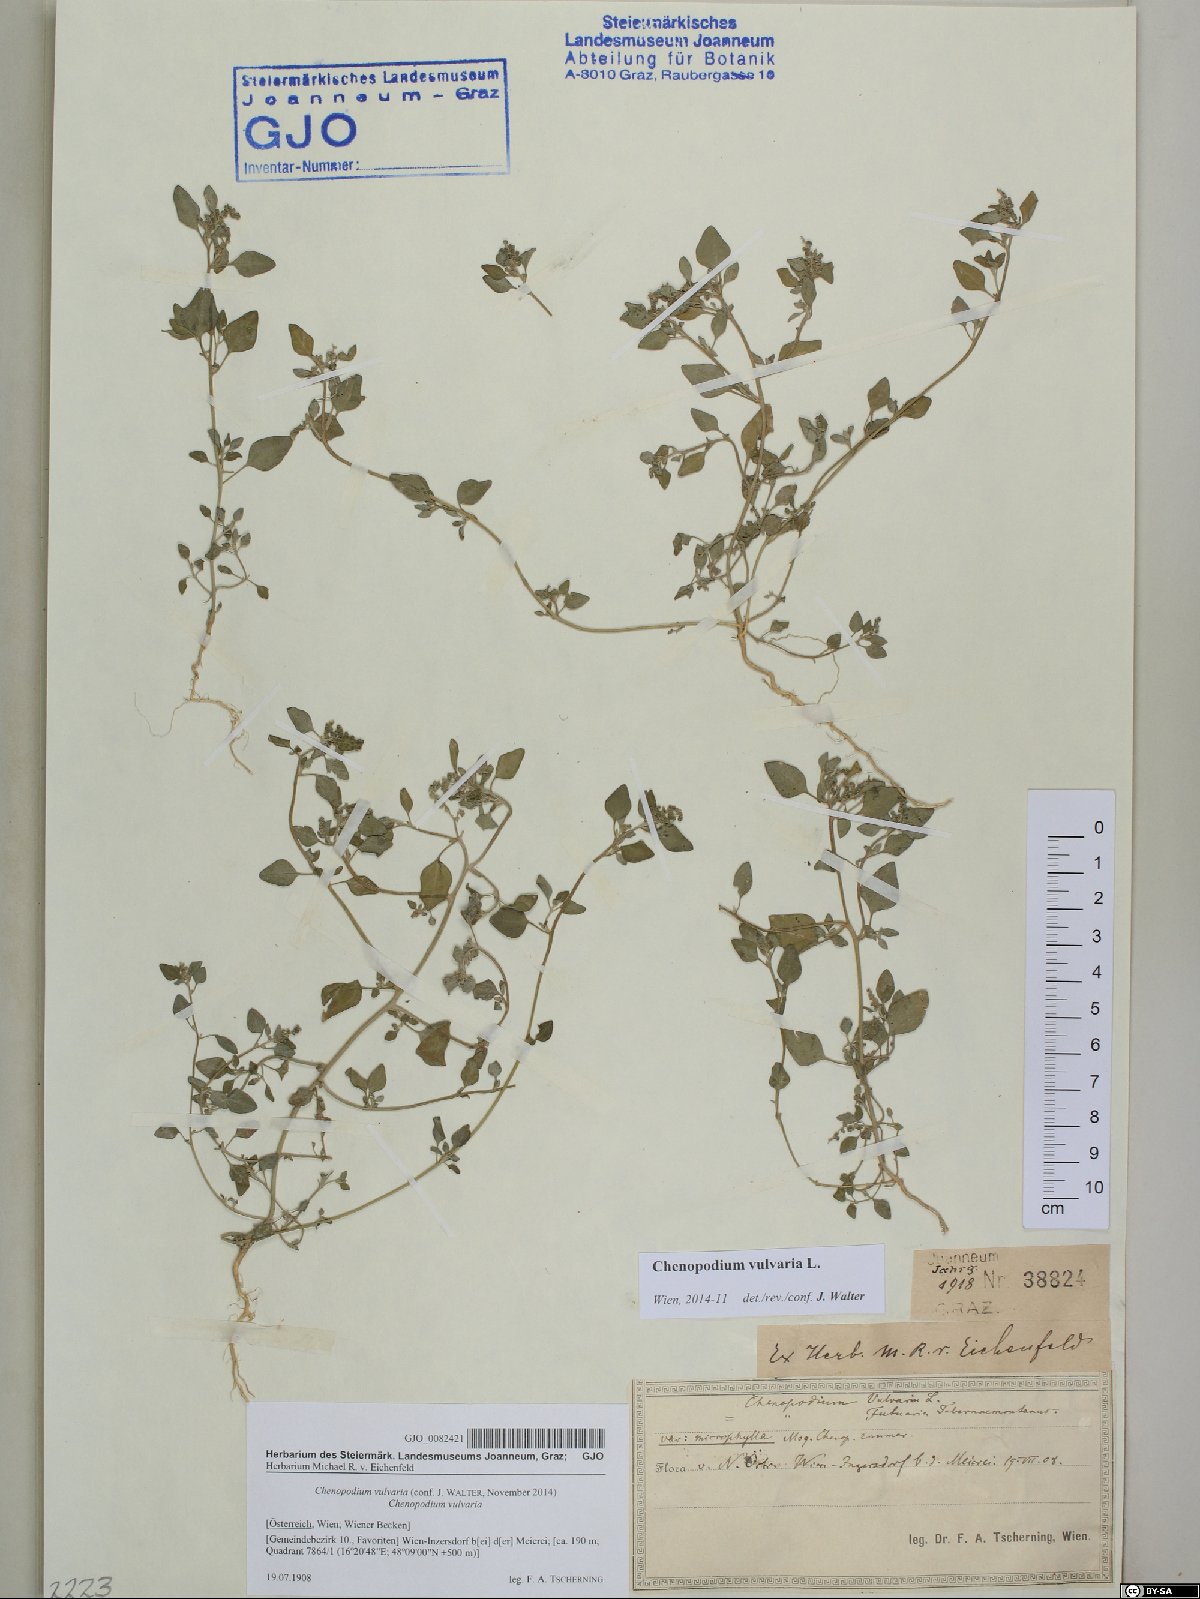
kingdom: Plantae
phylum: Tracheophyta
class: Magnoliopsida
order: Caryophyllales
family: Amaranthaceae
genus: Chenopodium
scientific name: Chenopodium vulvaria
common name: Stinking goosefoot
